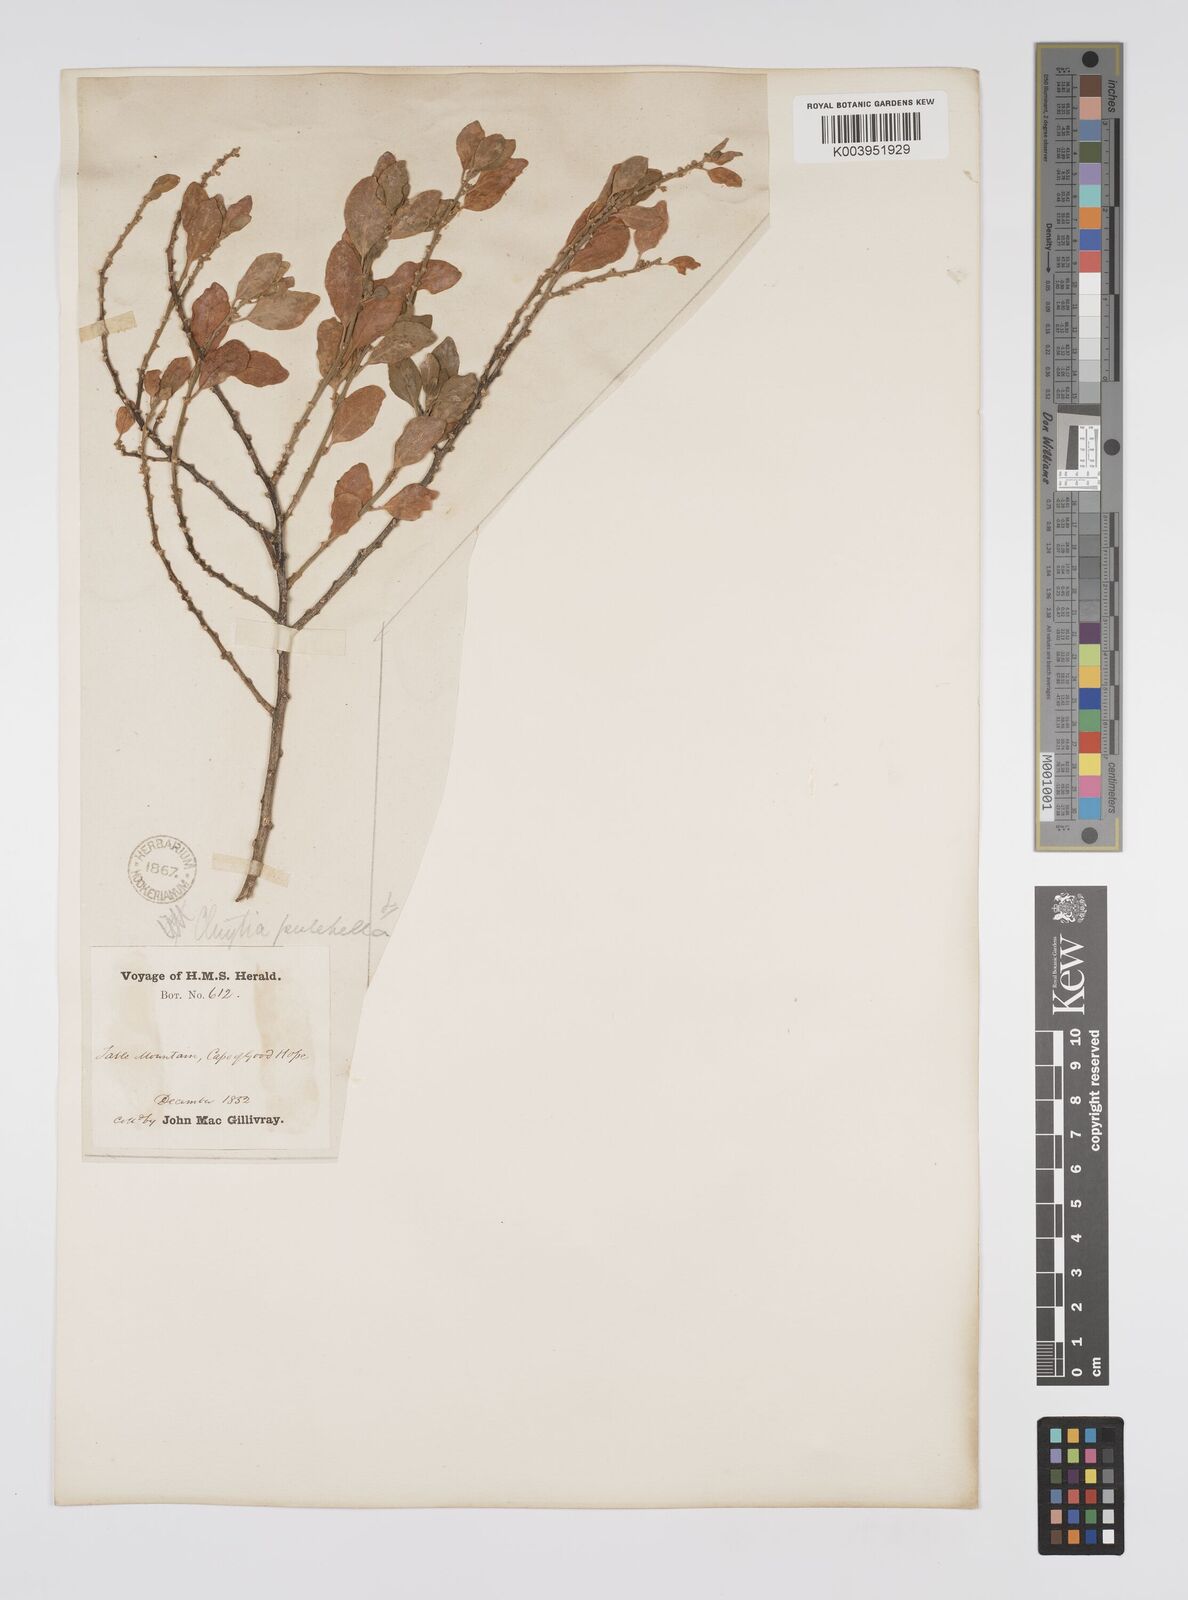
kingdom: Plantae
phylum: Tracheophyta
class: Magnoliopsida
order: Malpighiales
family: Peraceae
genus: Clutia
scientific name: Clutia pulchella
